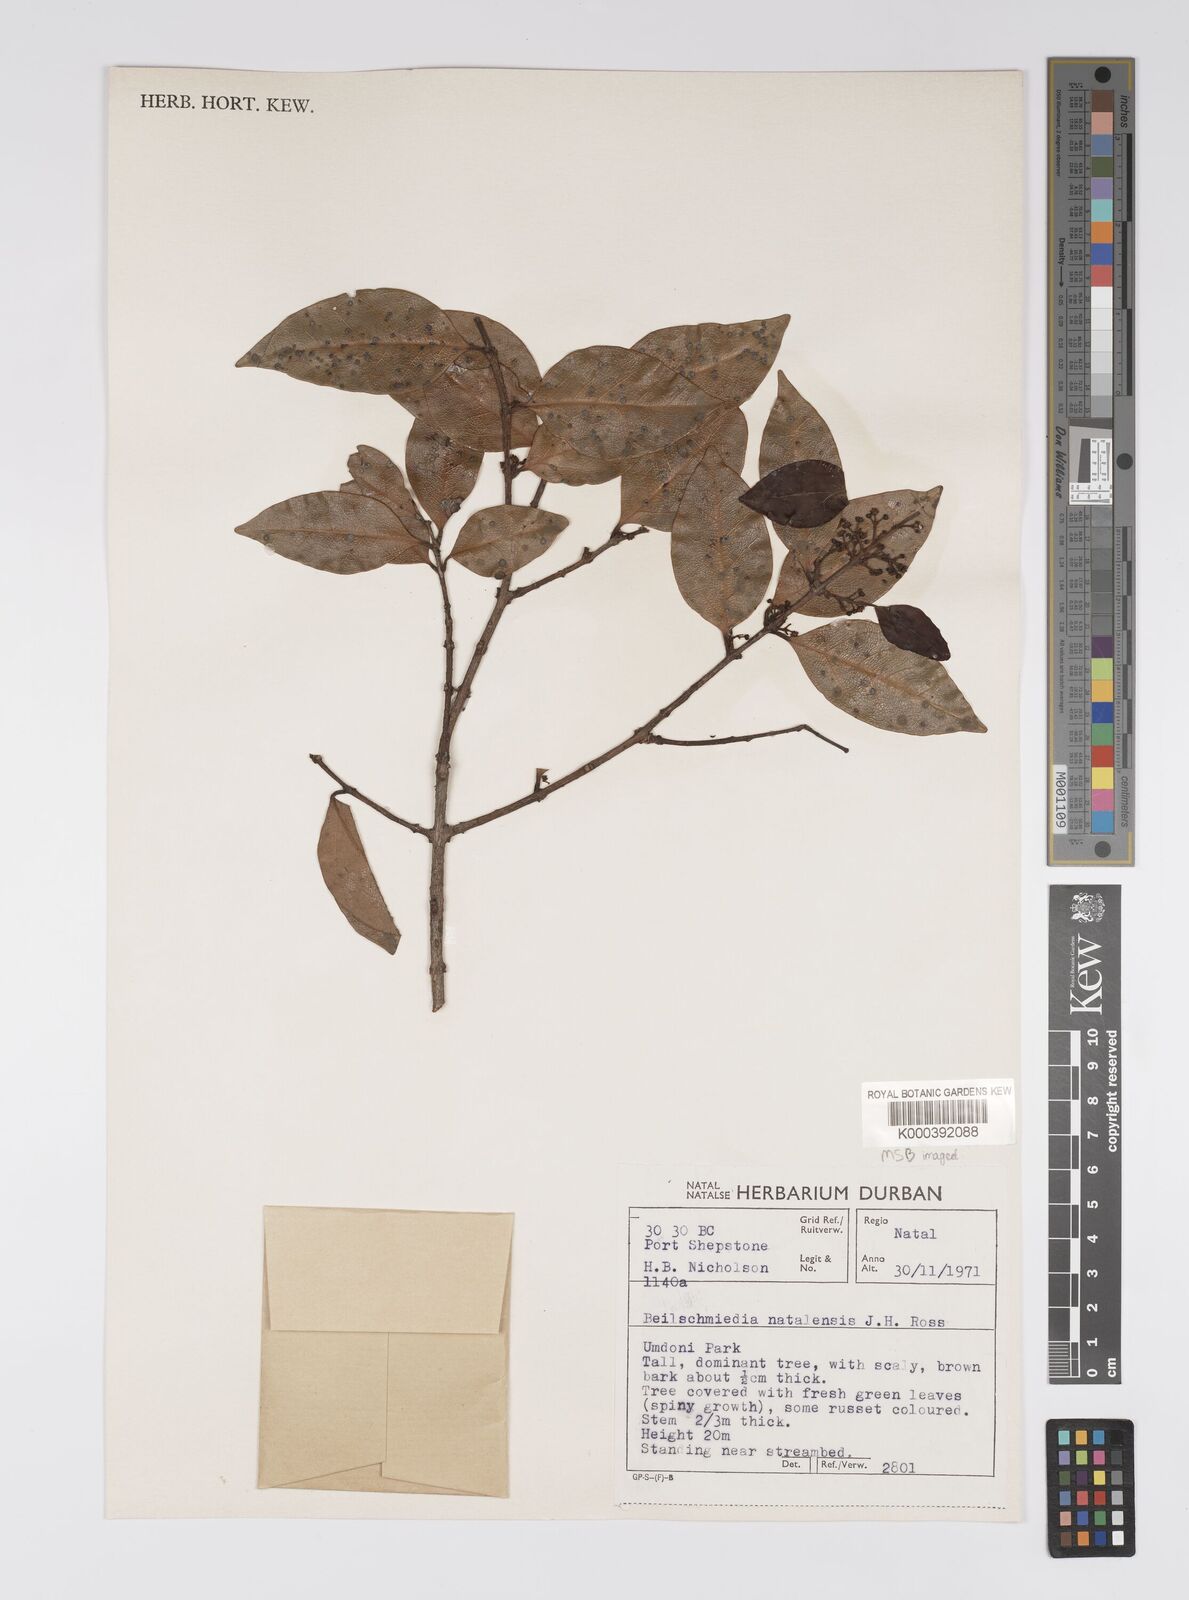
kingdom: Plantae
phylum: Tracheophyta
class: Magnoliopsida
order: Laurales
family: Lauraceae
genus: Dahlgrenodendron
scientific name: Dahlgrenodendron natalense
